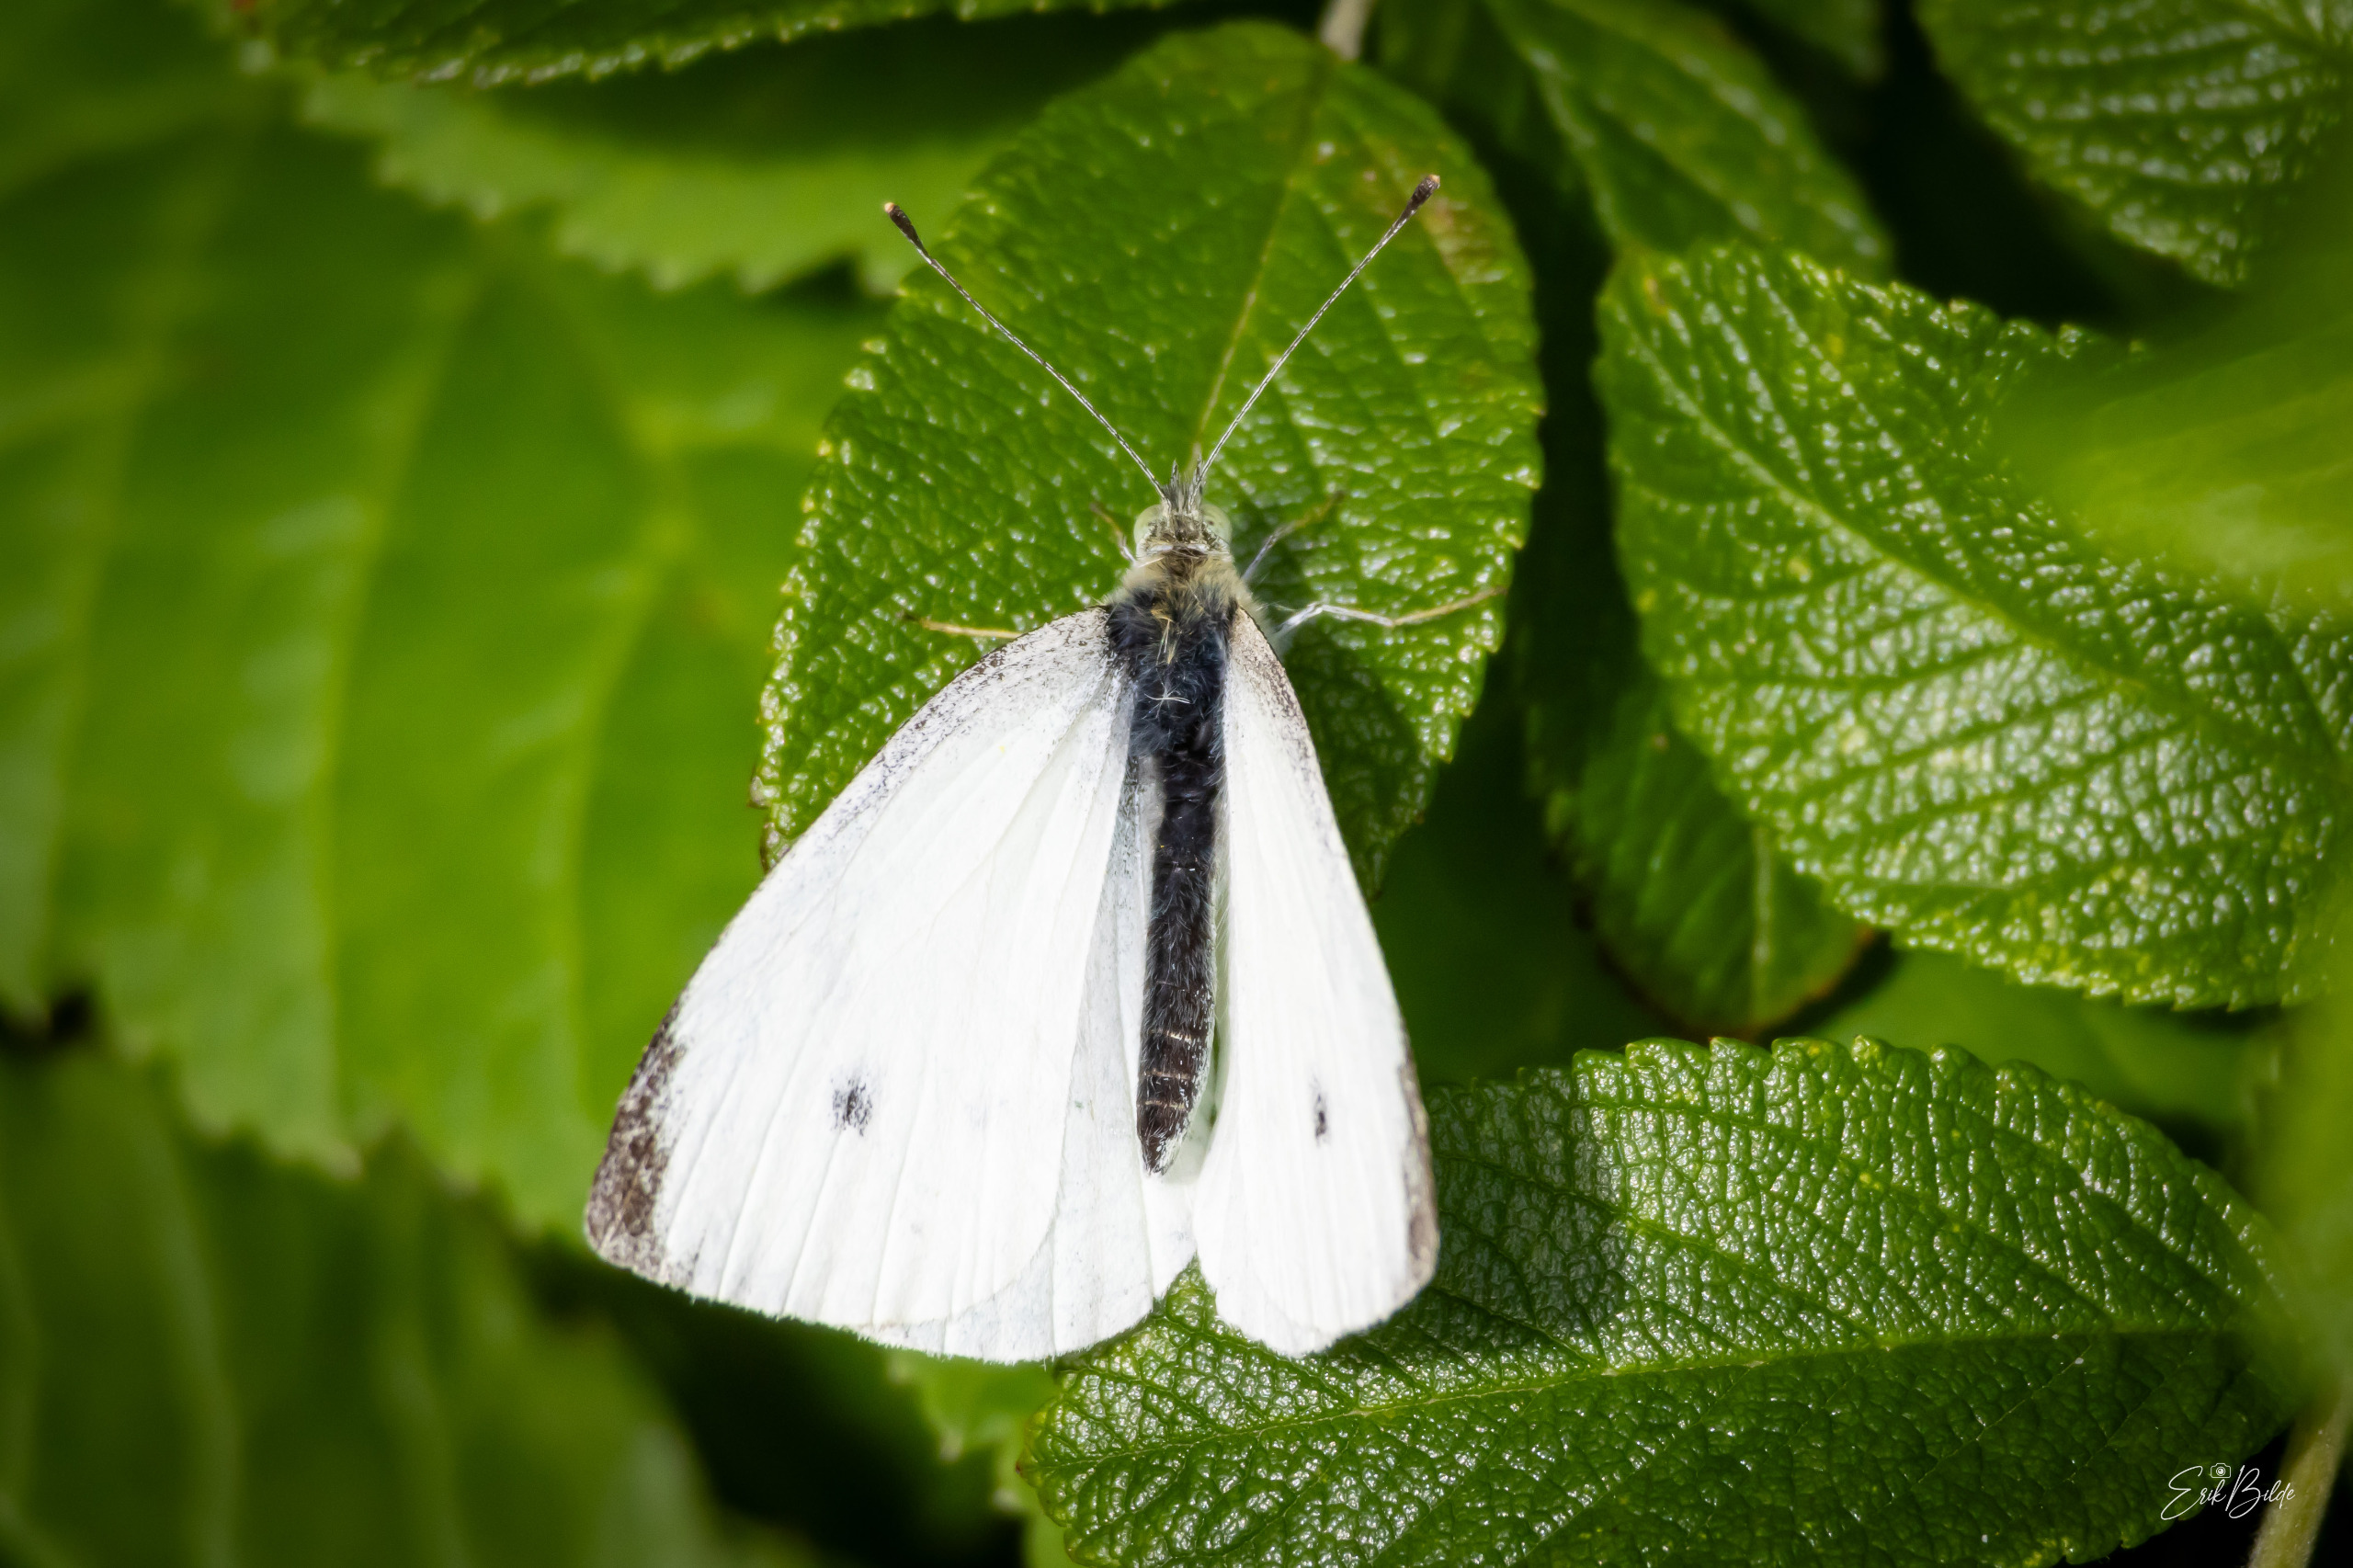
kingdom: Animalia
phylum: Arthropoda
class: Insecta
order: Lepidoptera
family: Pieridae
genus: Pieris
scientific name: Pieris rapae
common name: Lille kålsommerfugl
